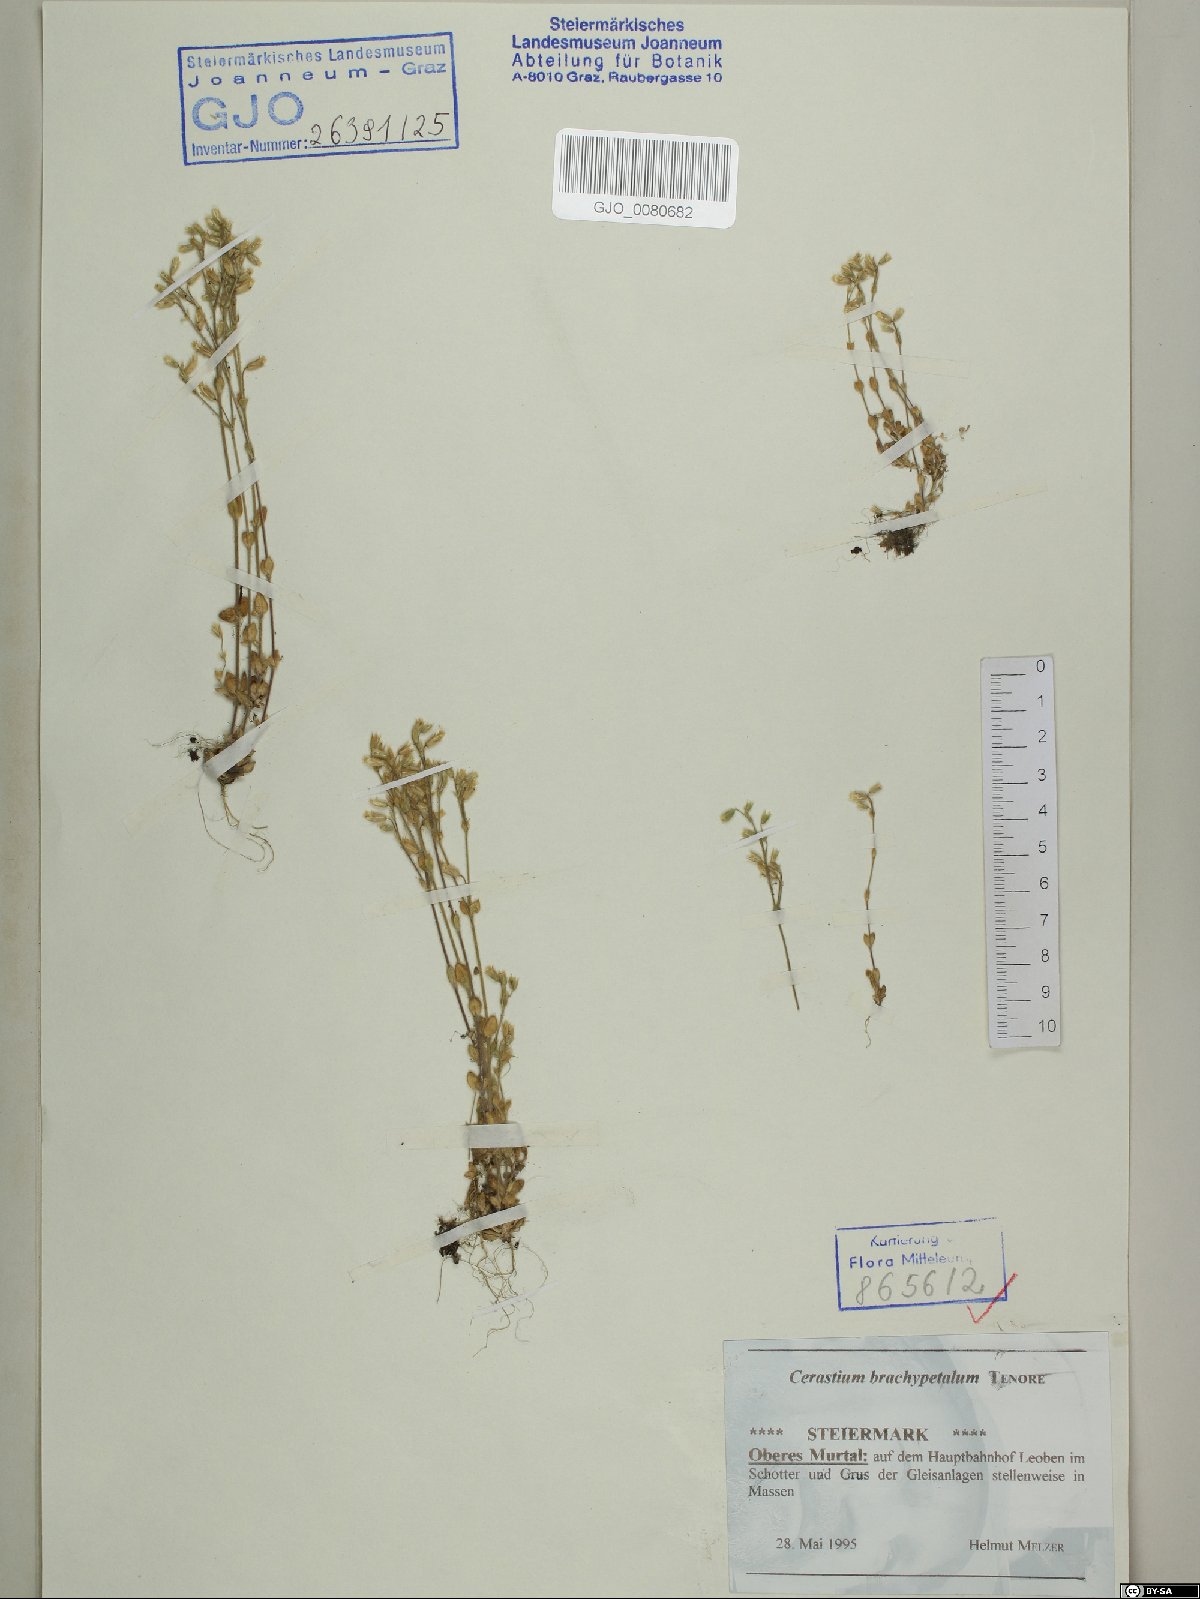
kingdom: Plantae
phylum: Tracheophyta
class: Magnoliopsida
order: Caryophyllales
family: Caryophyllaceae
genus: Cerastium
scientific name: Cerastium brachypetalum
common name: Grey mouse-ear
